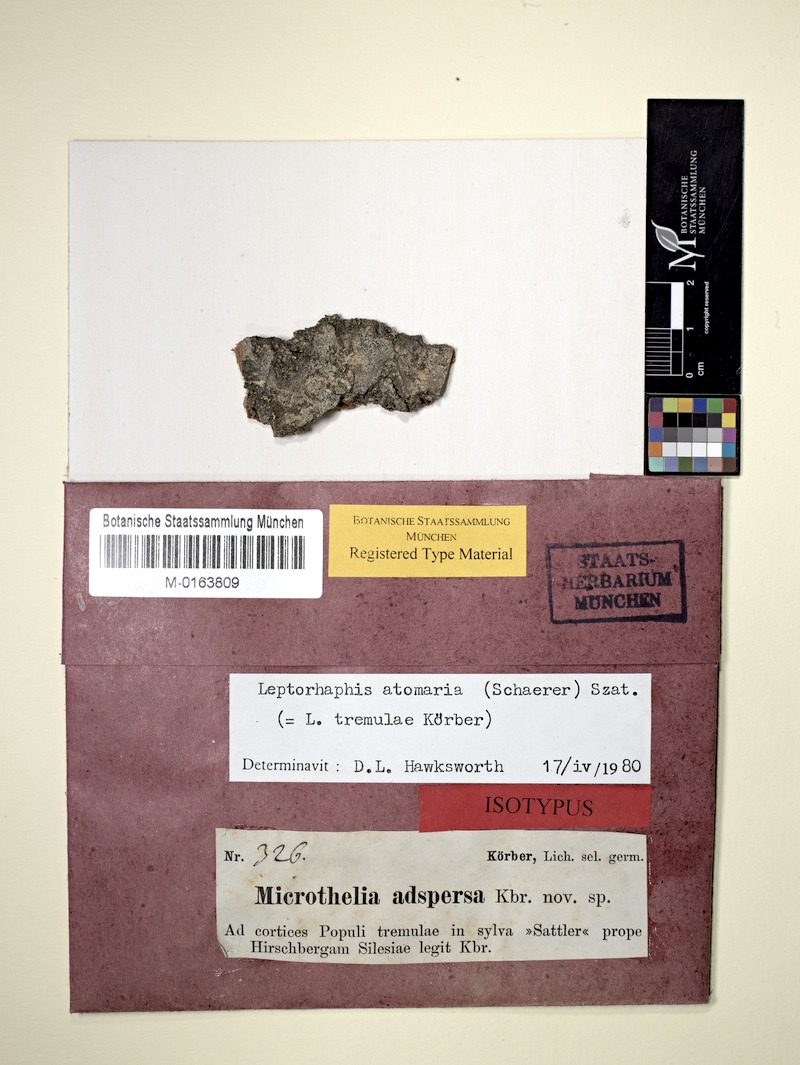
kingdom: Fungi
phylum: Ascomycota
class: Dothideomycetes
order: Pleosporales
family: Naetrocymbaceae
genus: Leptorhaphis
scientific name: Leptorhaphis atomaria
